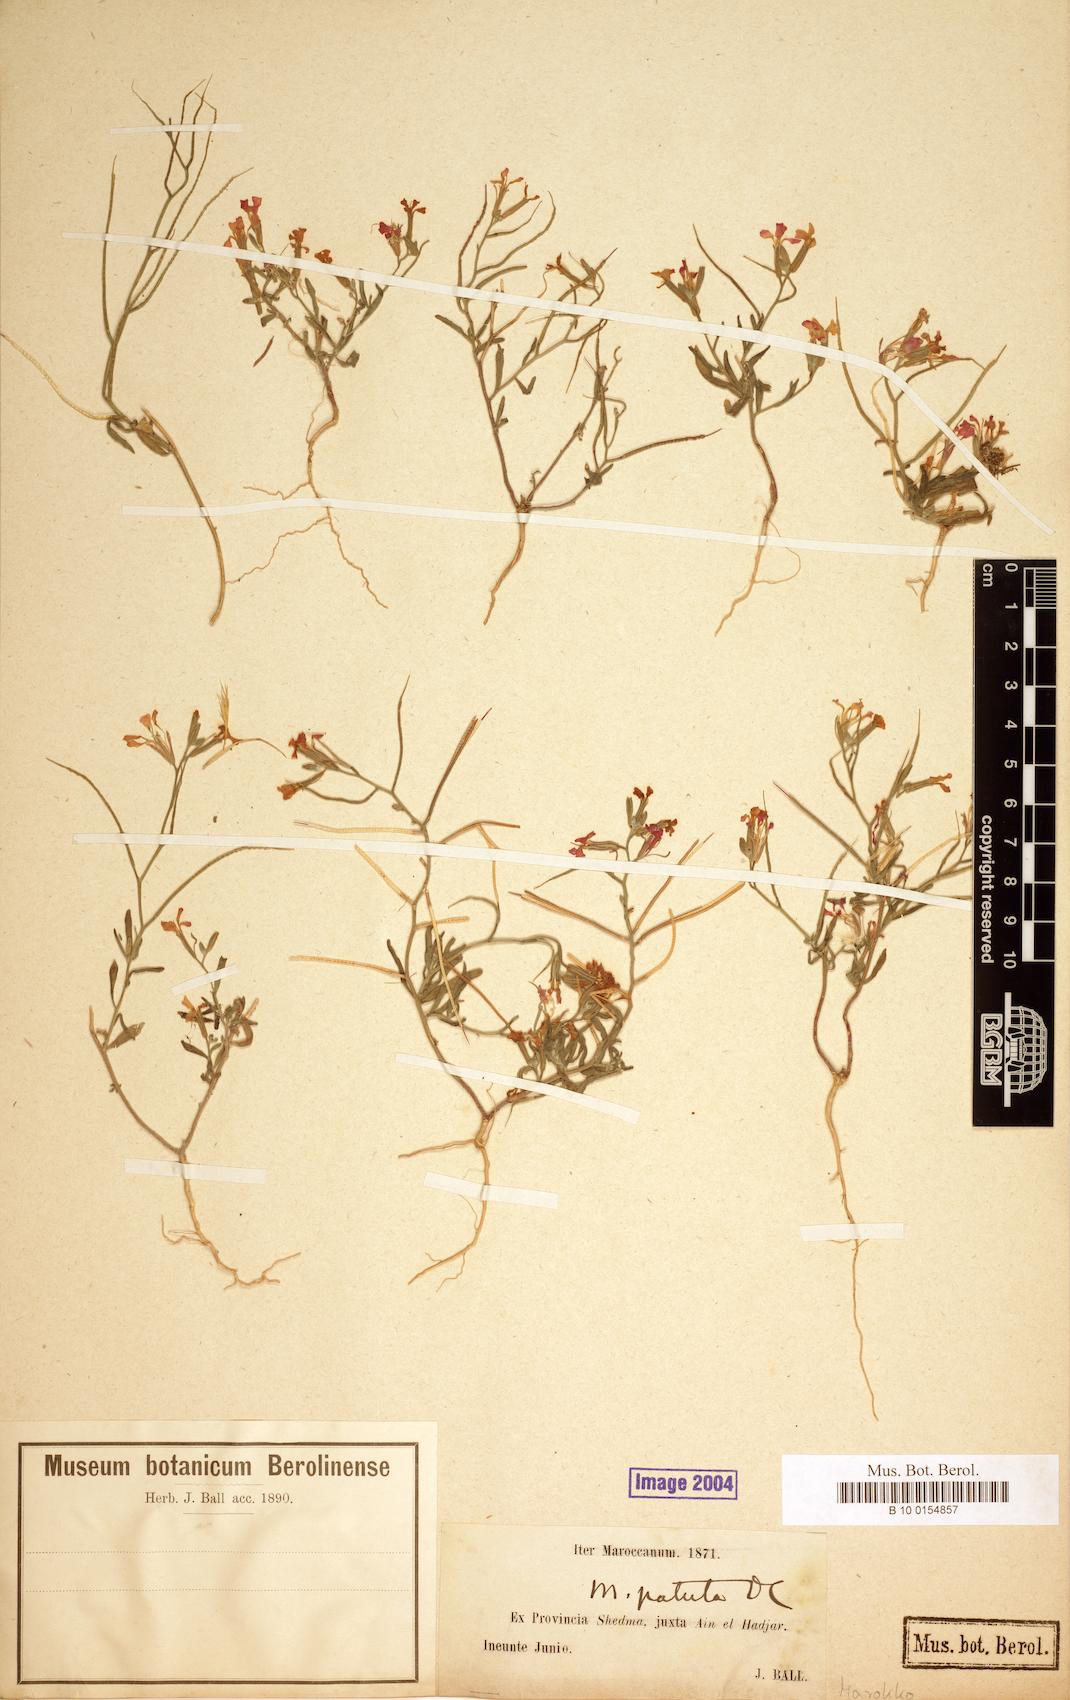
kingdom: Plantae
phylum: Tracheophyta
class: Magnoliopsida
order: Brassicales
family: Brassicaceae
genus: Marcuskochia
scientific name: Marcuskochia triloba
